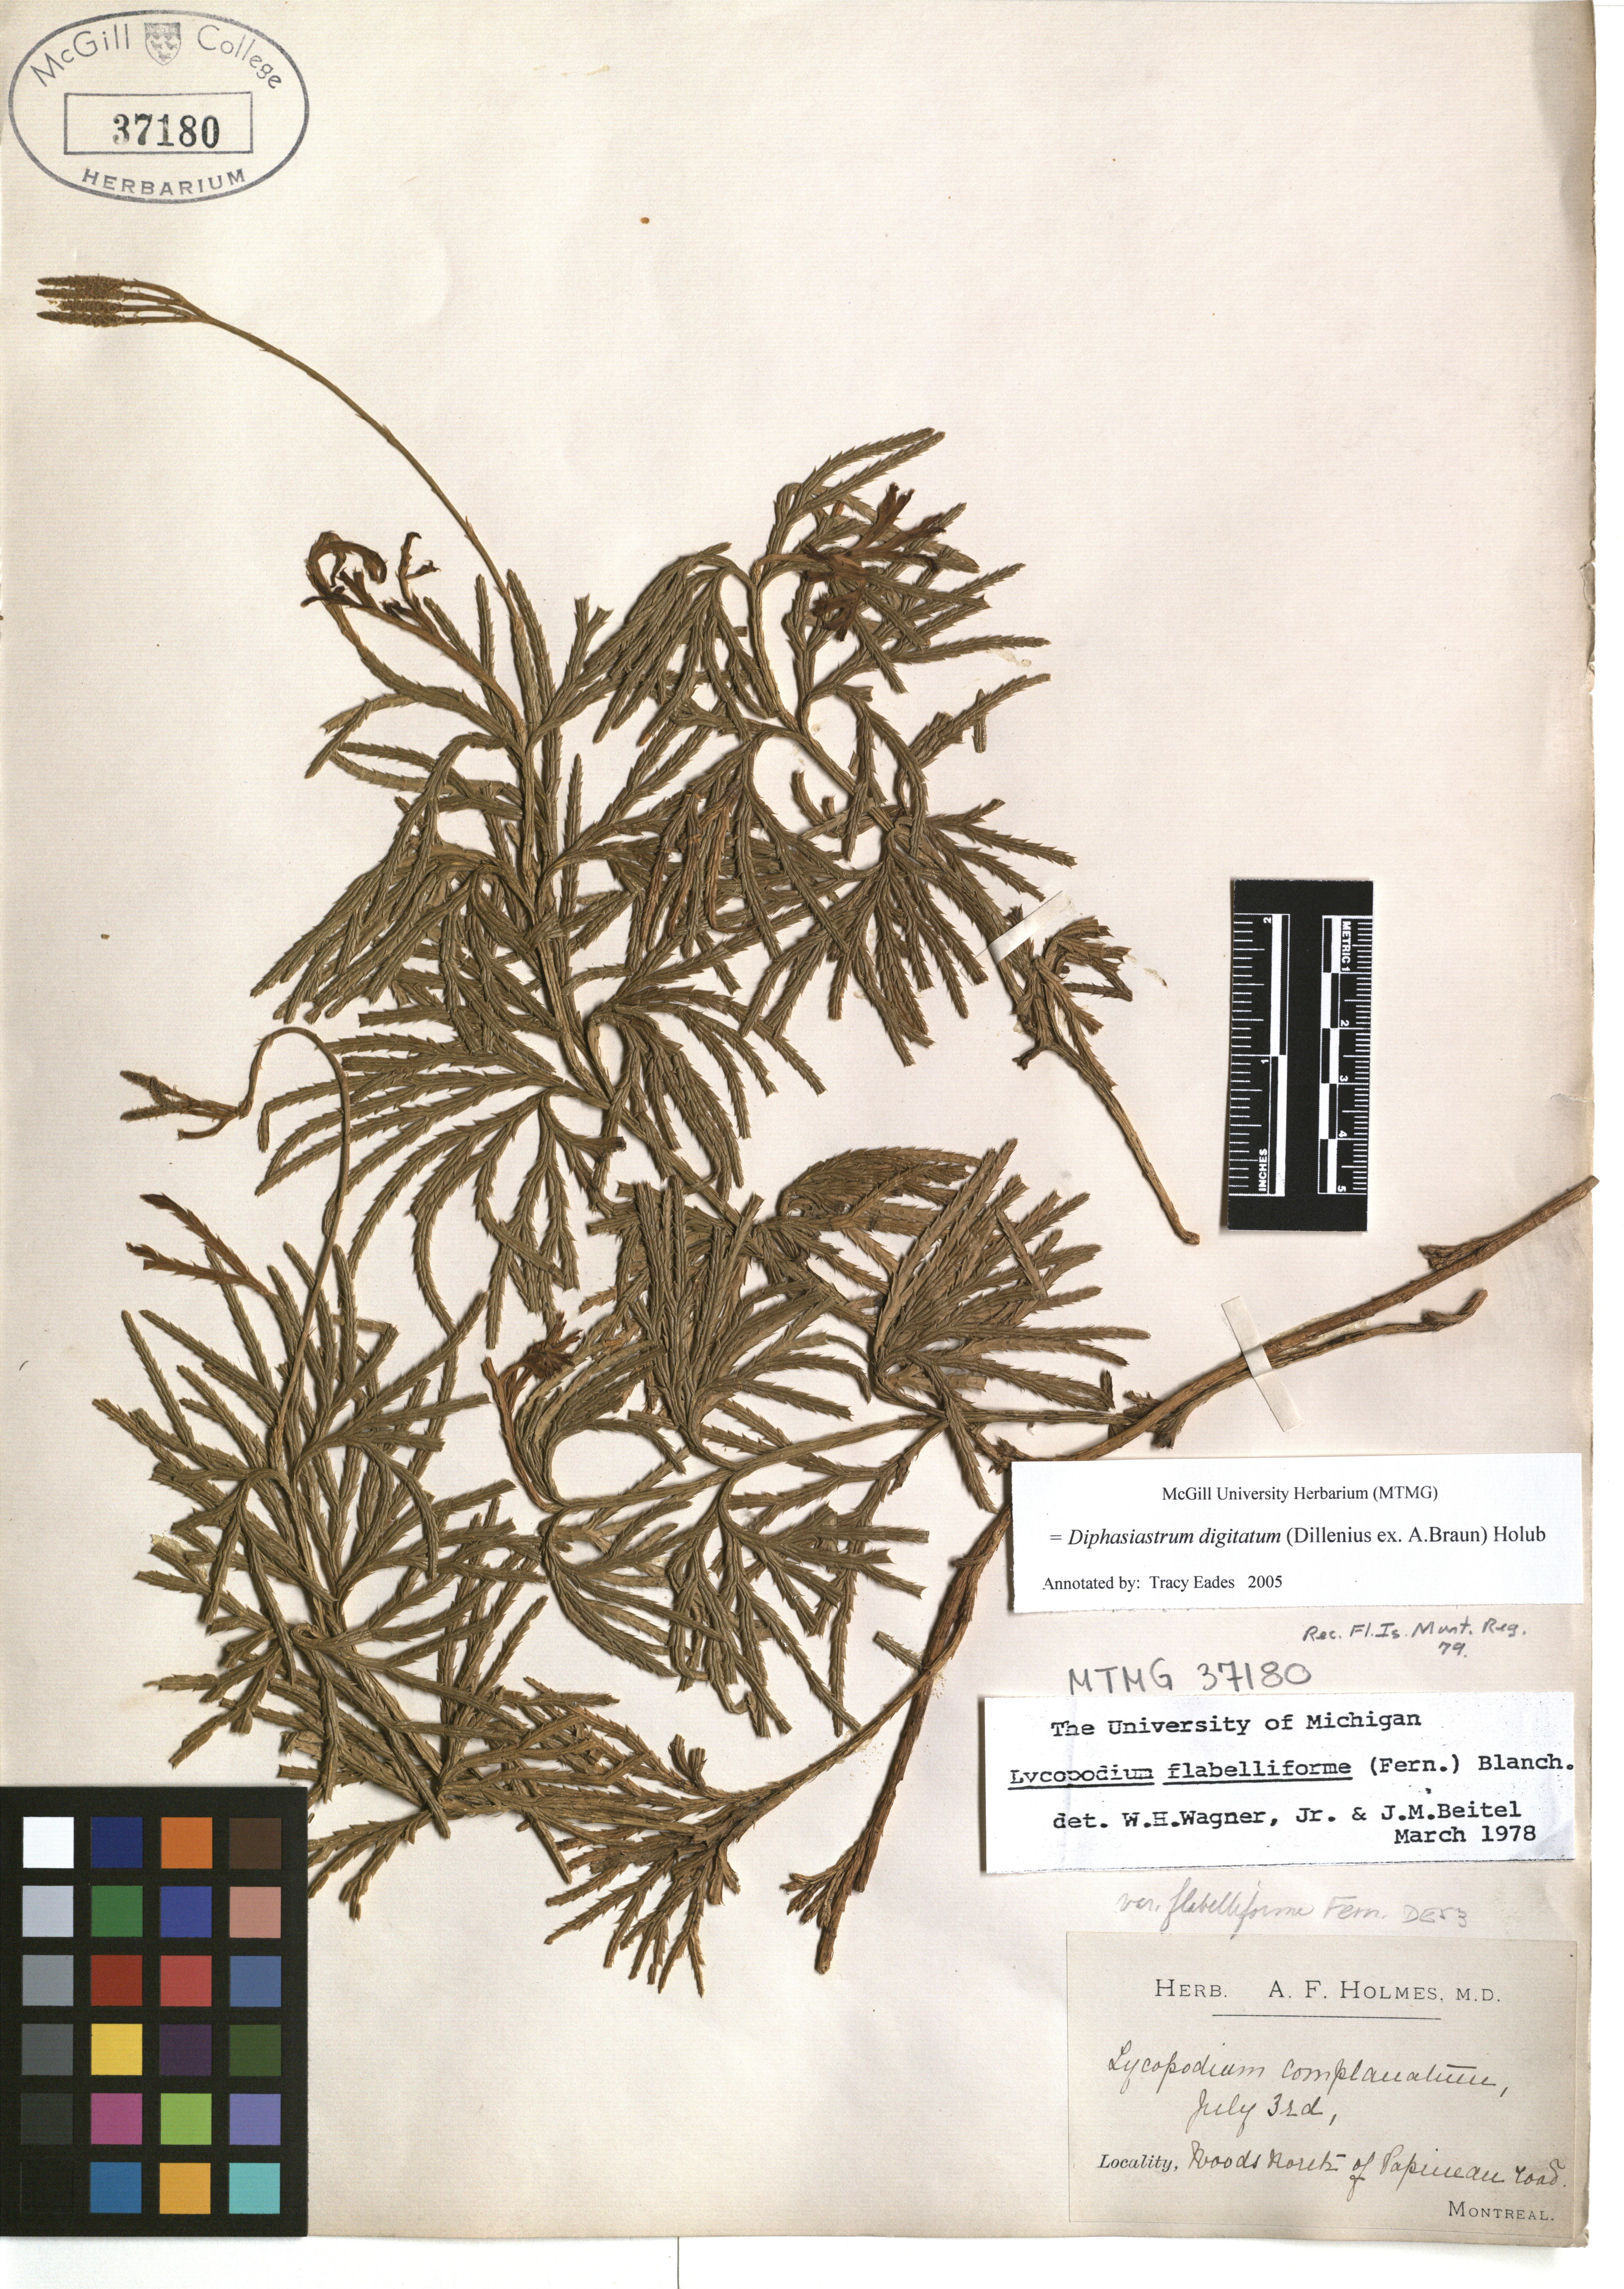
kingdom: Plantae
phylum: Tracheophyta
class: Lycopodiopsida
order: Lycopodiales
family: Lycopodiaceae
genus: Diphasiastrum
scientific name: Diphasiastrum digitatum
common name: Southern running-pine
